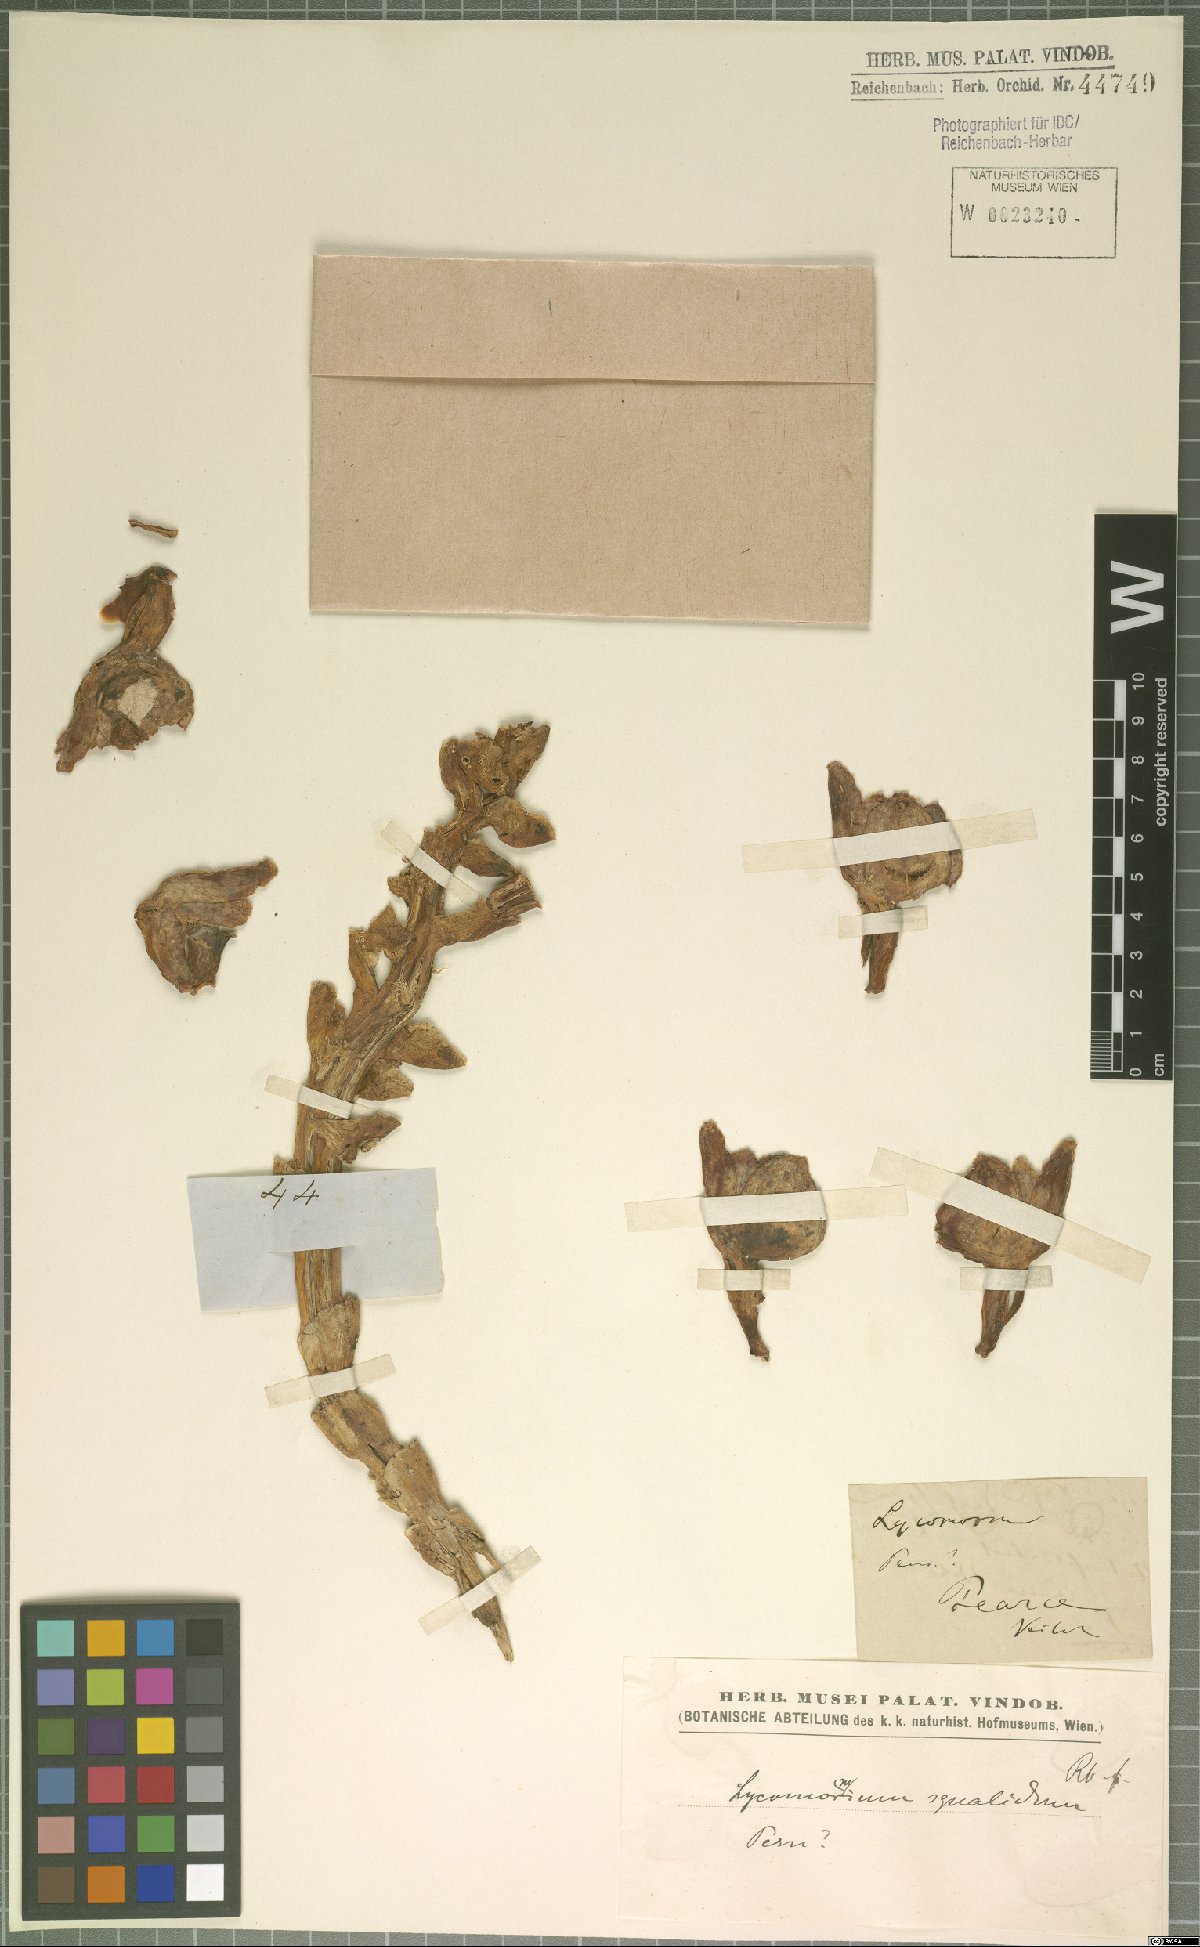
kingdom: Plantae
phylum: Tracheophyta
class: Liliopsida
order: Asparagales
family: Orchidaceae
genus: Lycomormium
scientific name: Lycomormium squalidum
